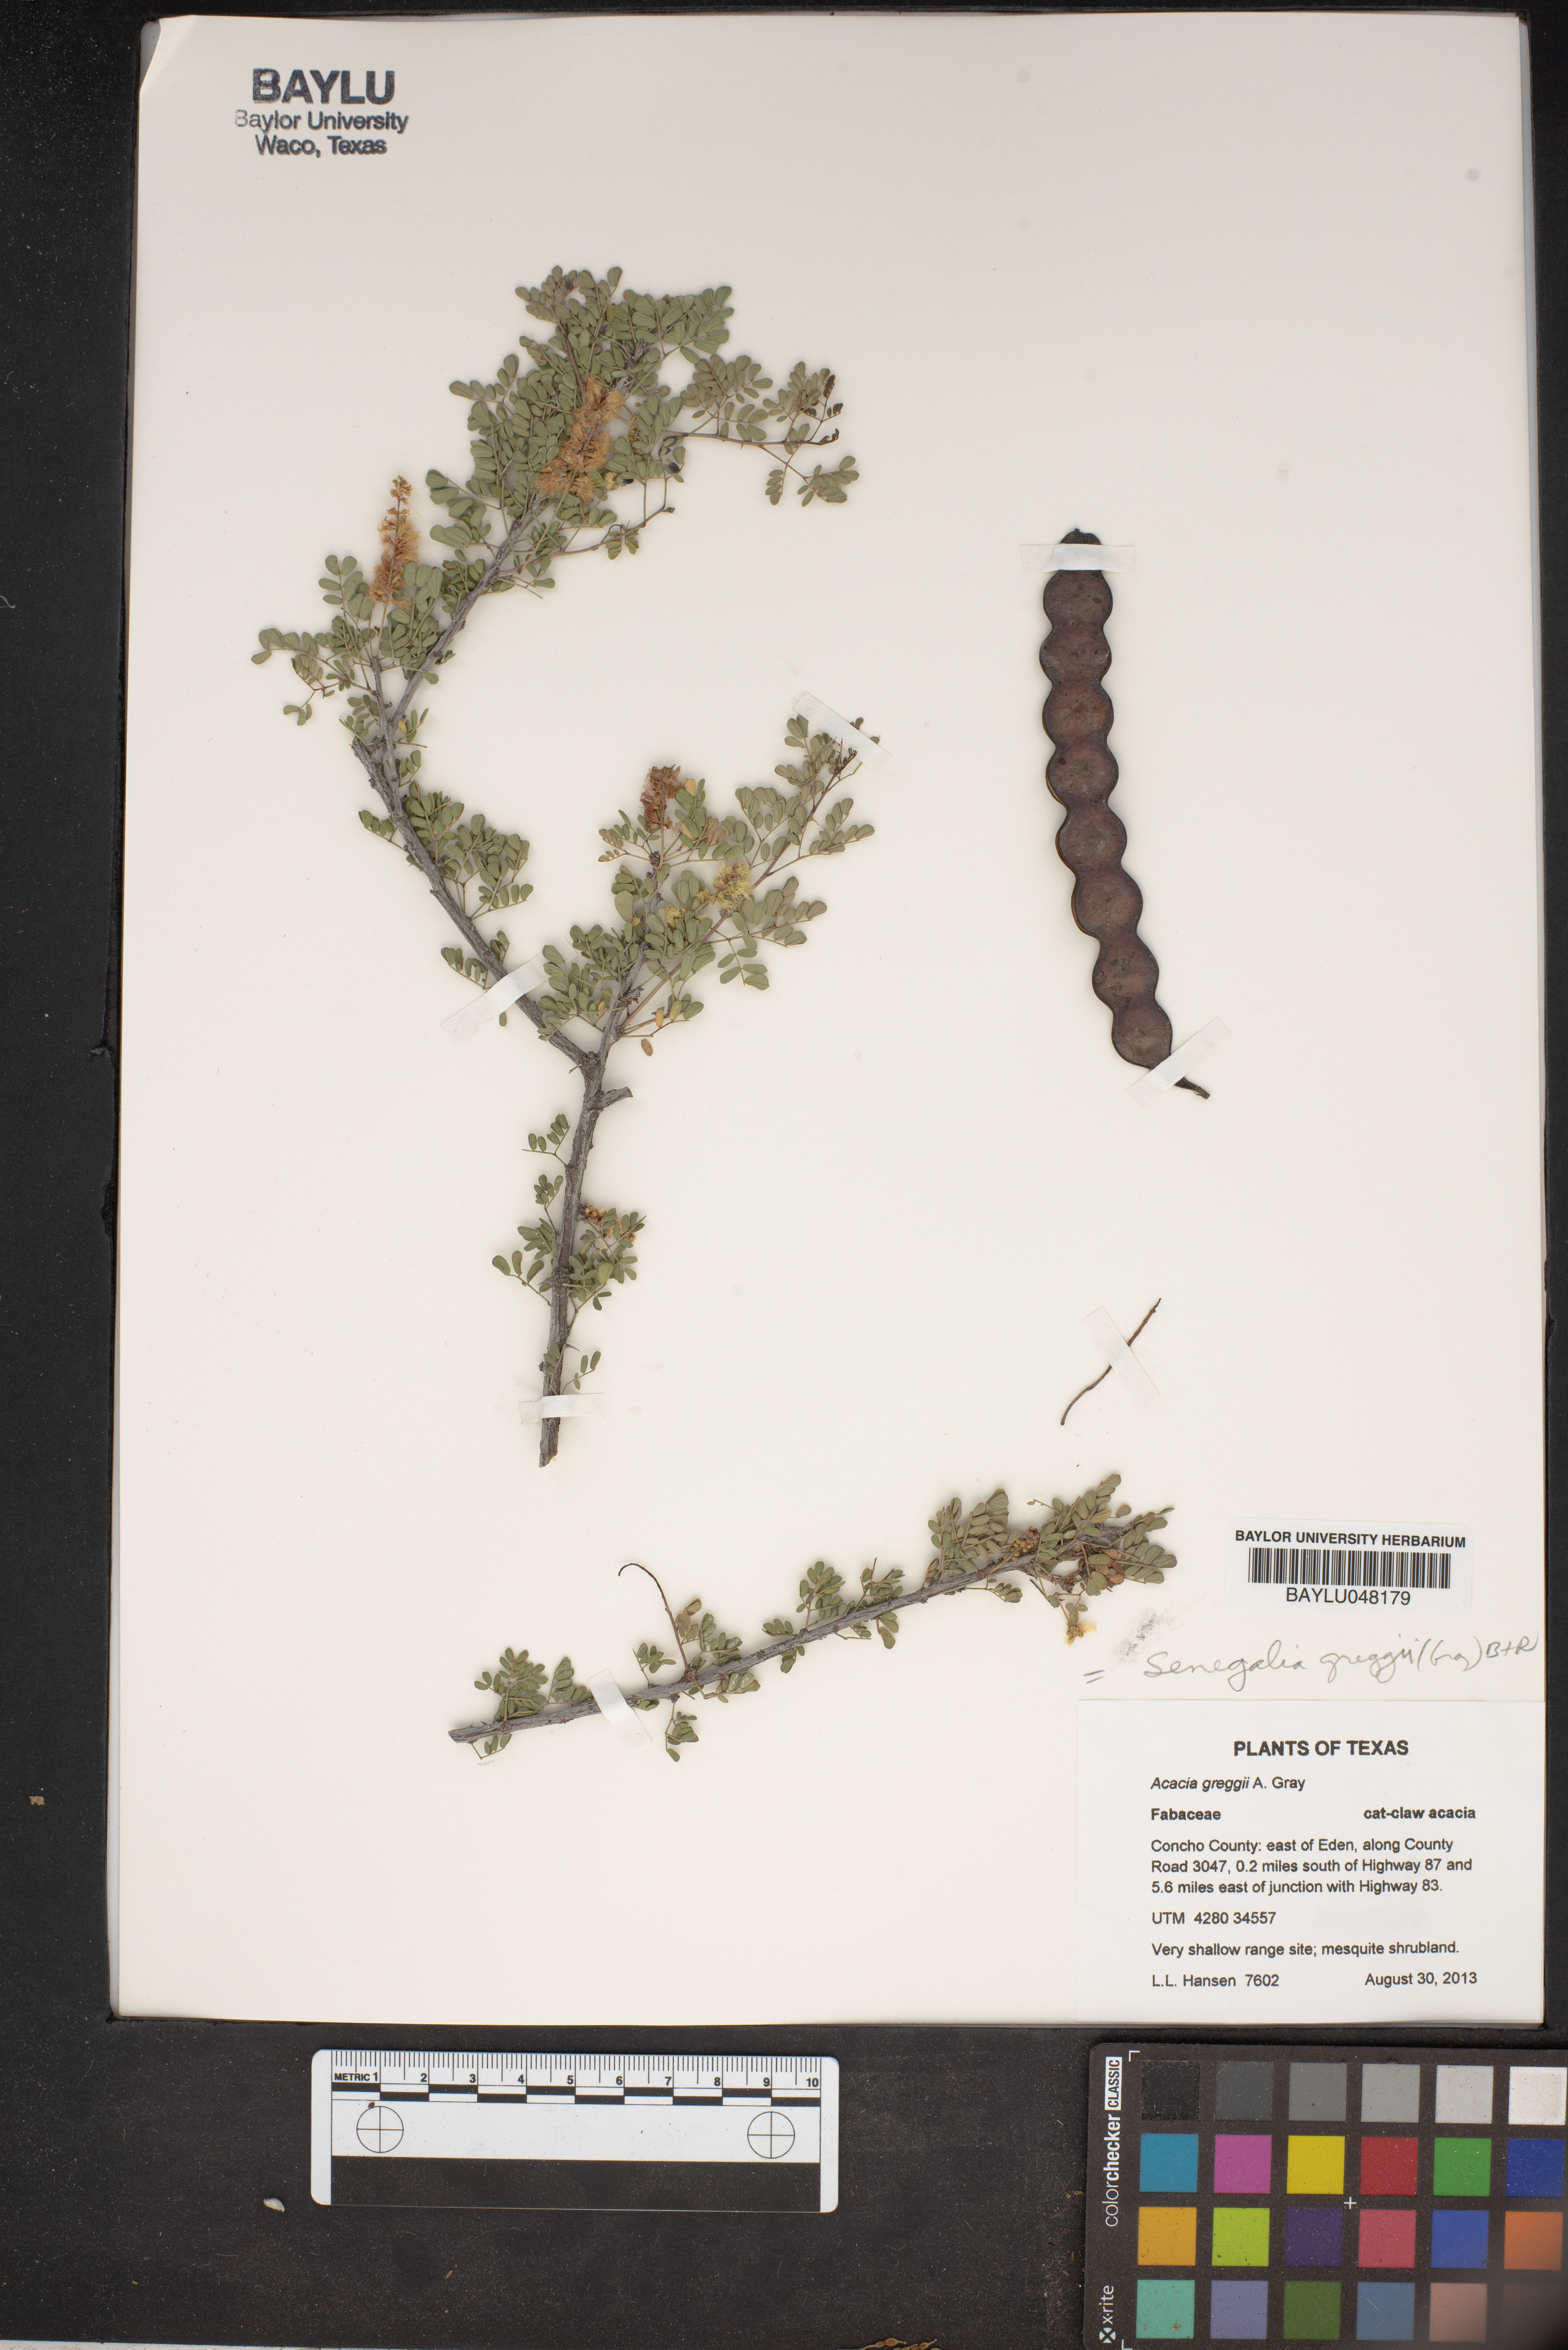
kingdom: Plantae
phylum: Tracheophyta
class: Magnoliopsida
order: Fabales
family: Fabaceae
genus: Senegalia
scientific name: Senegalia greggii
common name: Texas-mimosa
